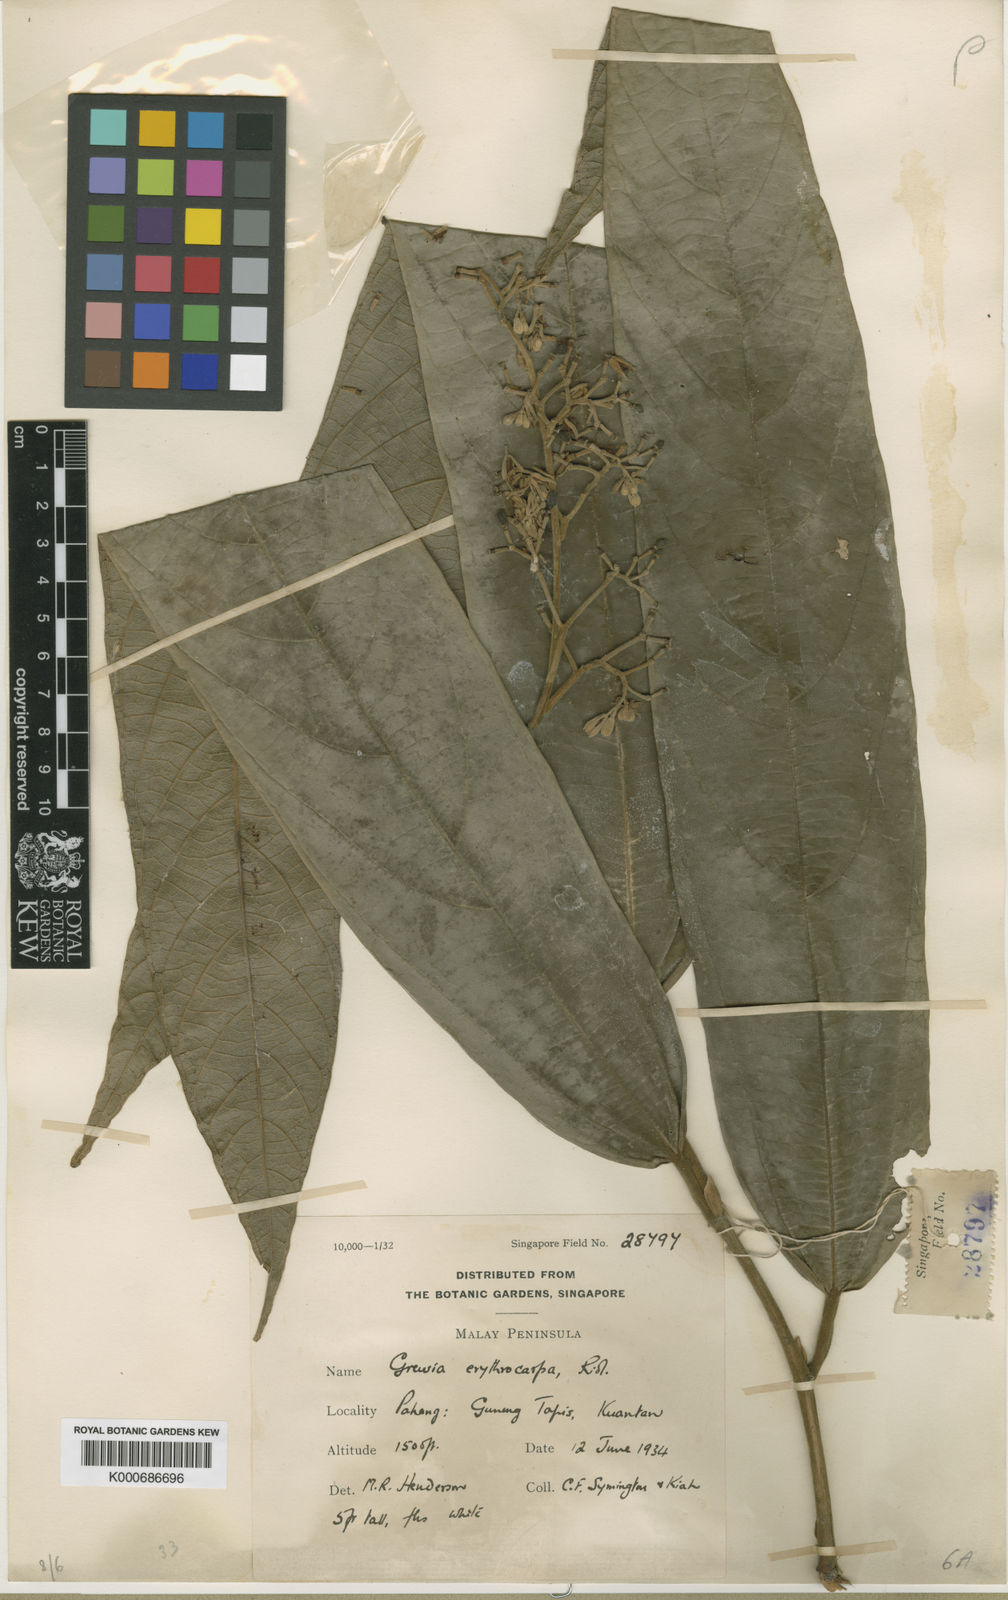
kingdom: Plantae
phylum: Tracheophyta
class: Magnoliopsida
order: Malvales
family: Malvaceae
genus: Microcos
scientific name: Microcos erythrocarpa
